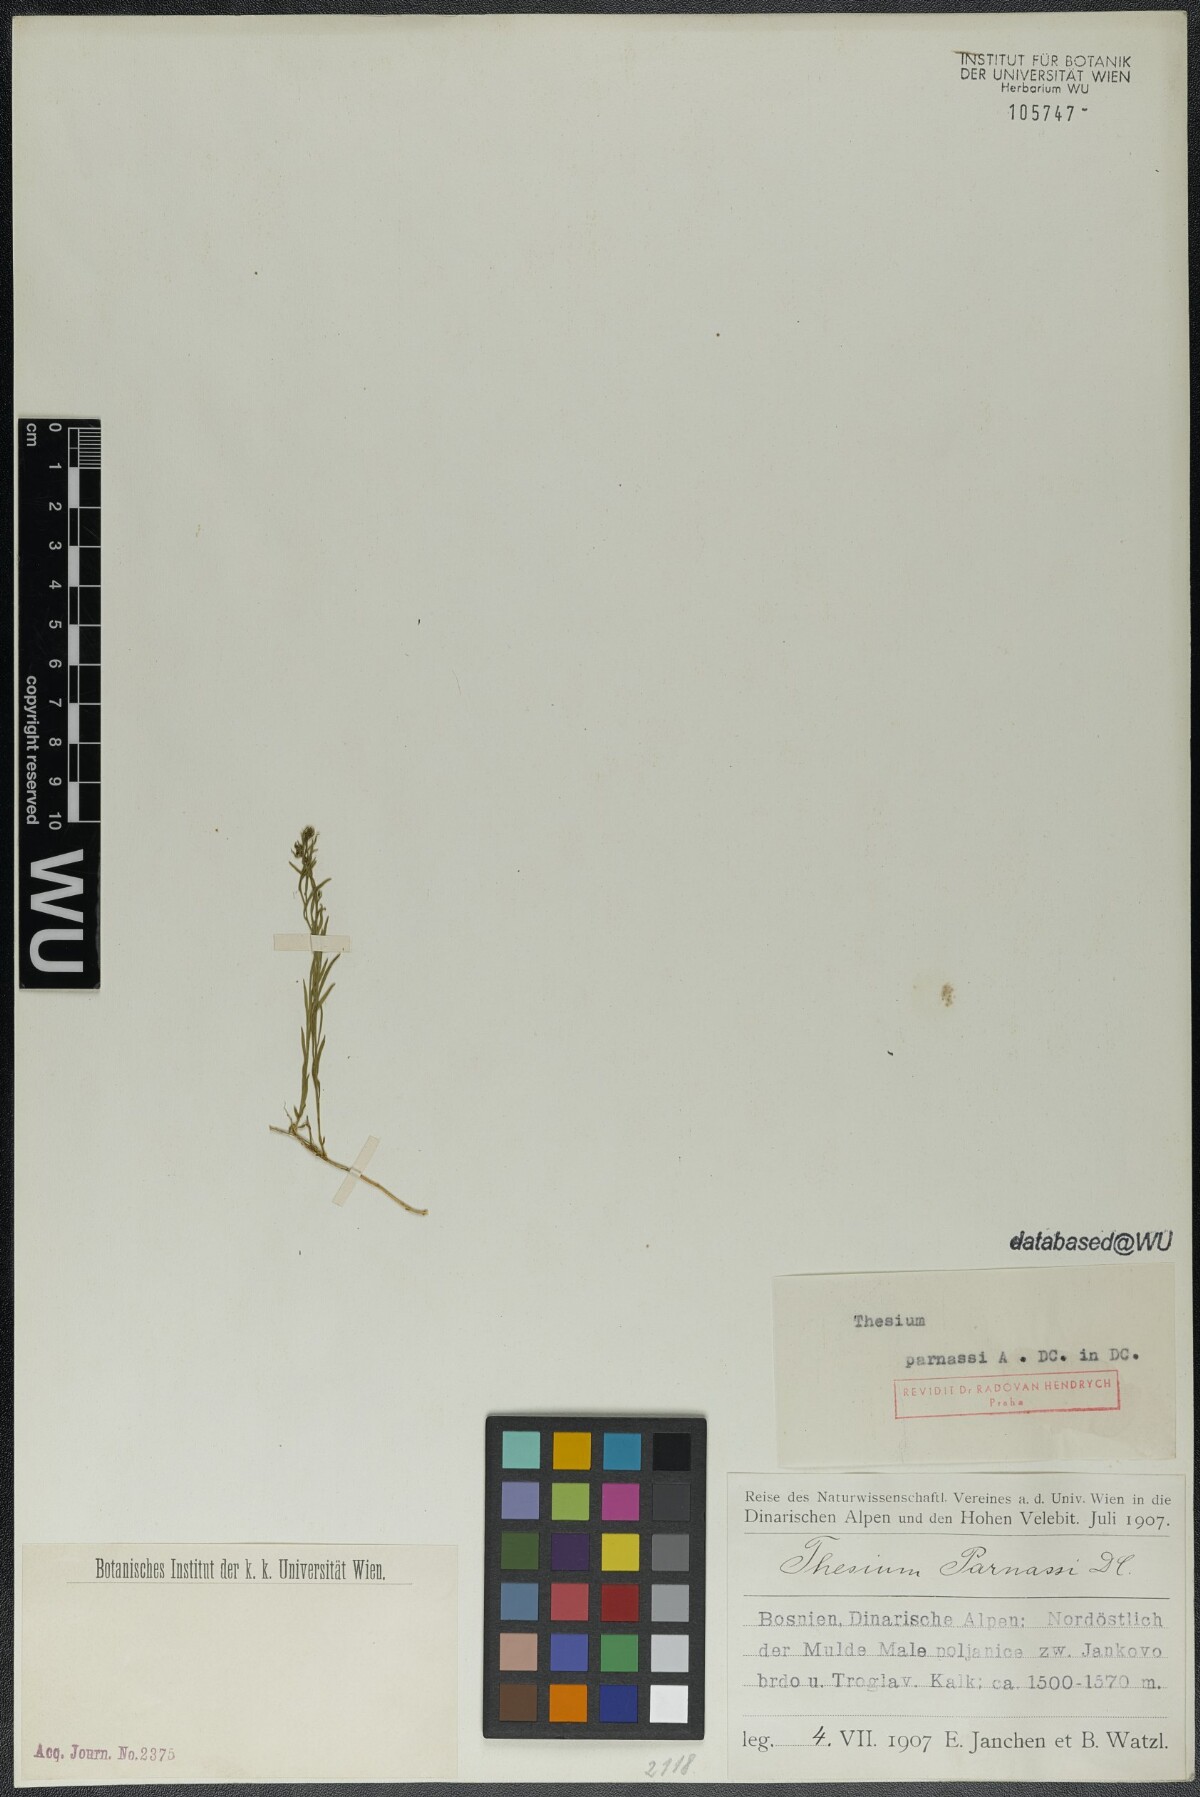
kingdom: Plantae
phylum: Tracheophyta
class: Magnoliopsida
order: Santalales
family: Thesiaceae
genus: Thesium
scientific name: Thesium parnassi
